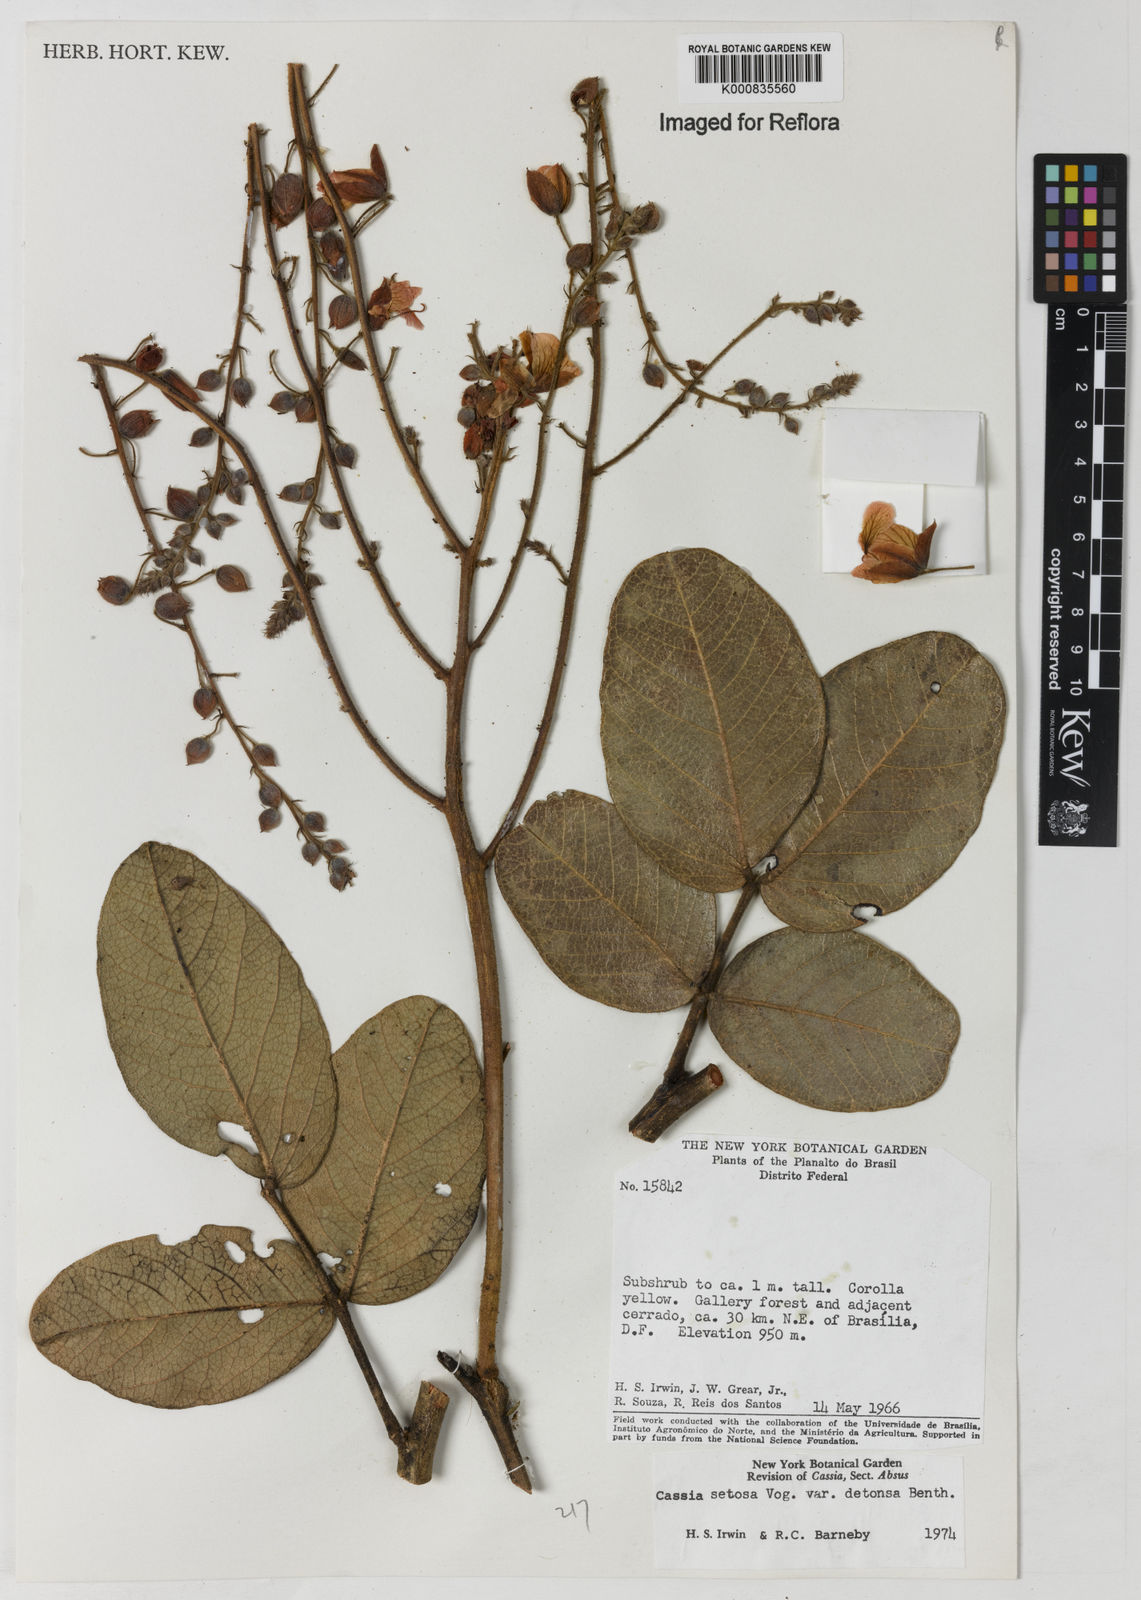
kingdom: Plantae
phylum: Tracheophyta
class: Magnoliopsida
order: Fabales
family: Fabaceae
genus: Chamaecrista
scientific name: Chamaecrista setosa
